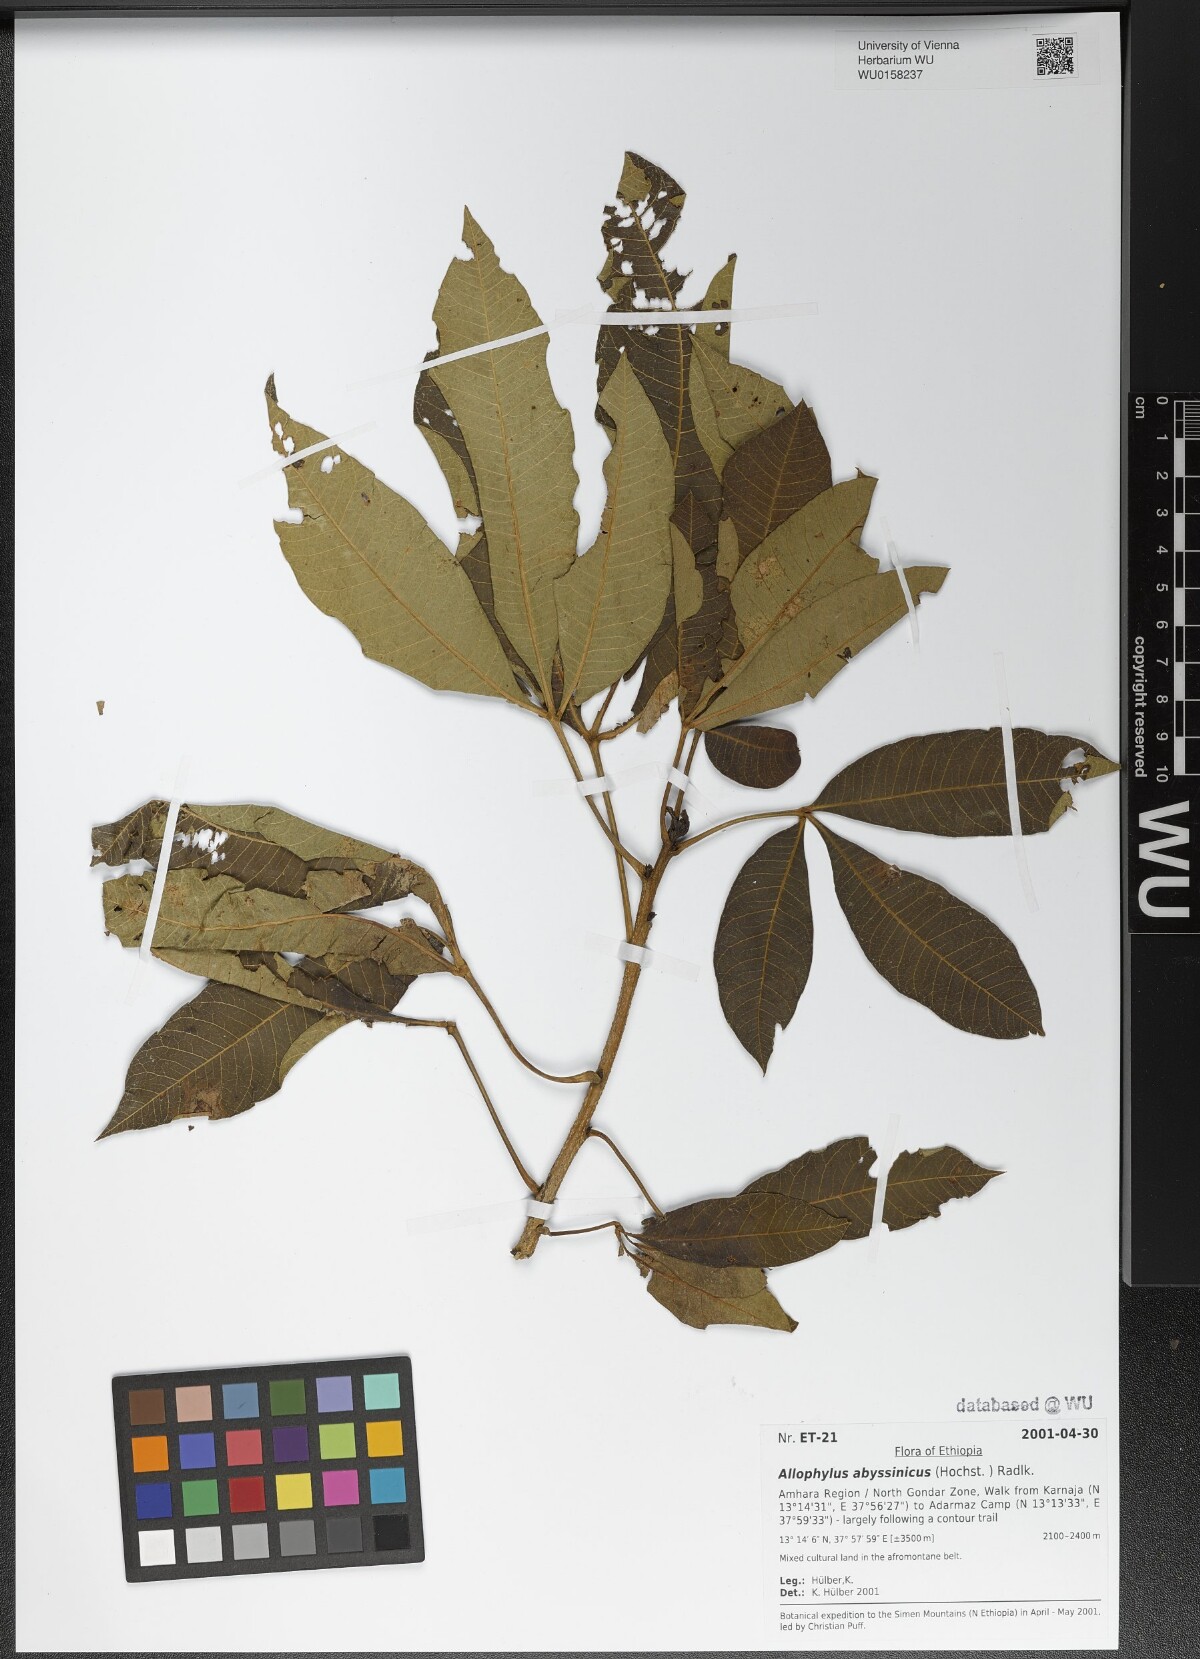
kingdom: Plantae
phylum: Tracheophyta
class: Magnoliopsida
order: Sapindales
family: Sapindaceae
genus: Allophylus
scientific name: Allophylus abyssinicus
